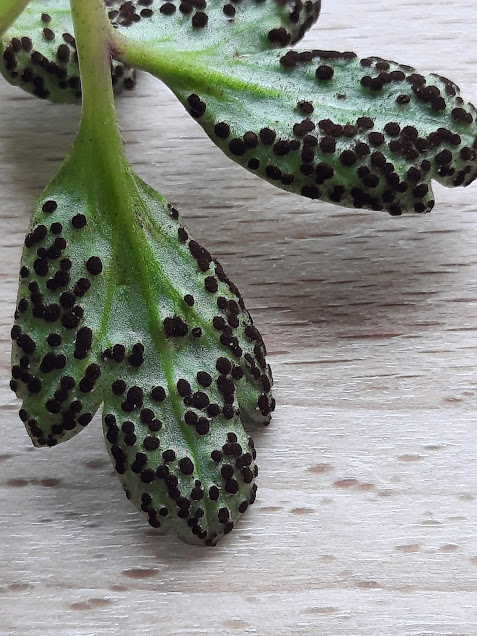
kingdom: Fungi
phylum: Basidiomycota
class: Pucciniomycetes
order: Pucciniales
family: Tranzscheliaceae
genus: Tranzschelia
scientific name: Tranzschelia anemones
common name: anemone-knæksporerust
